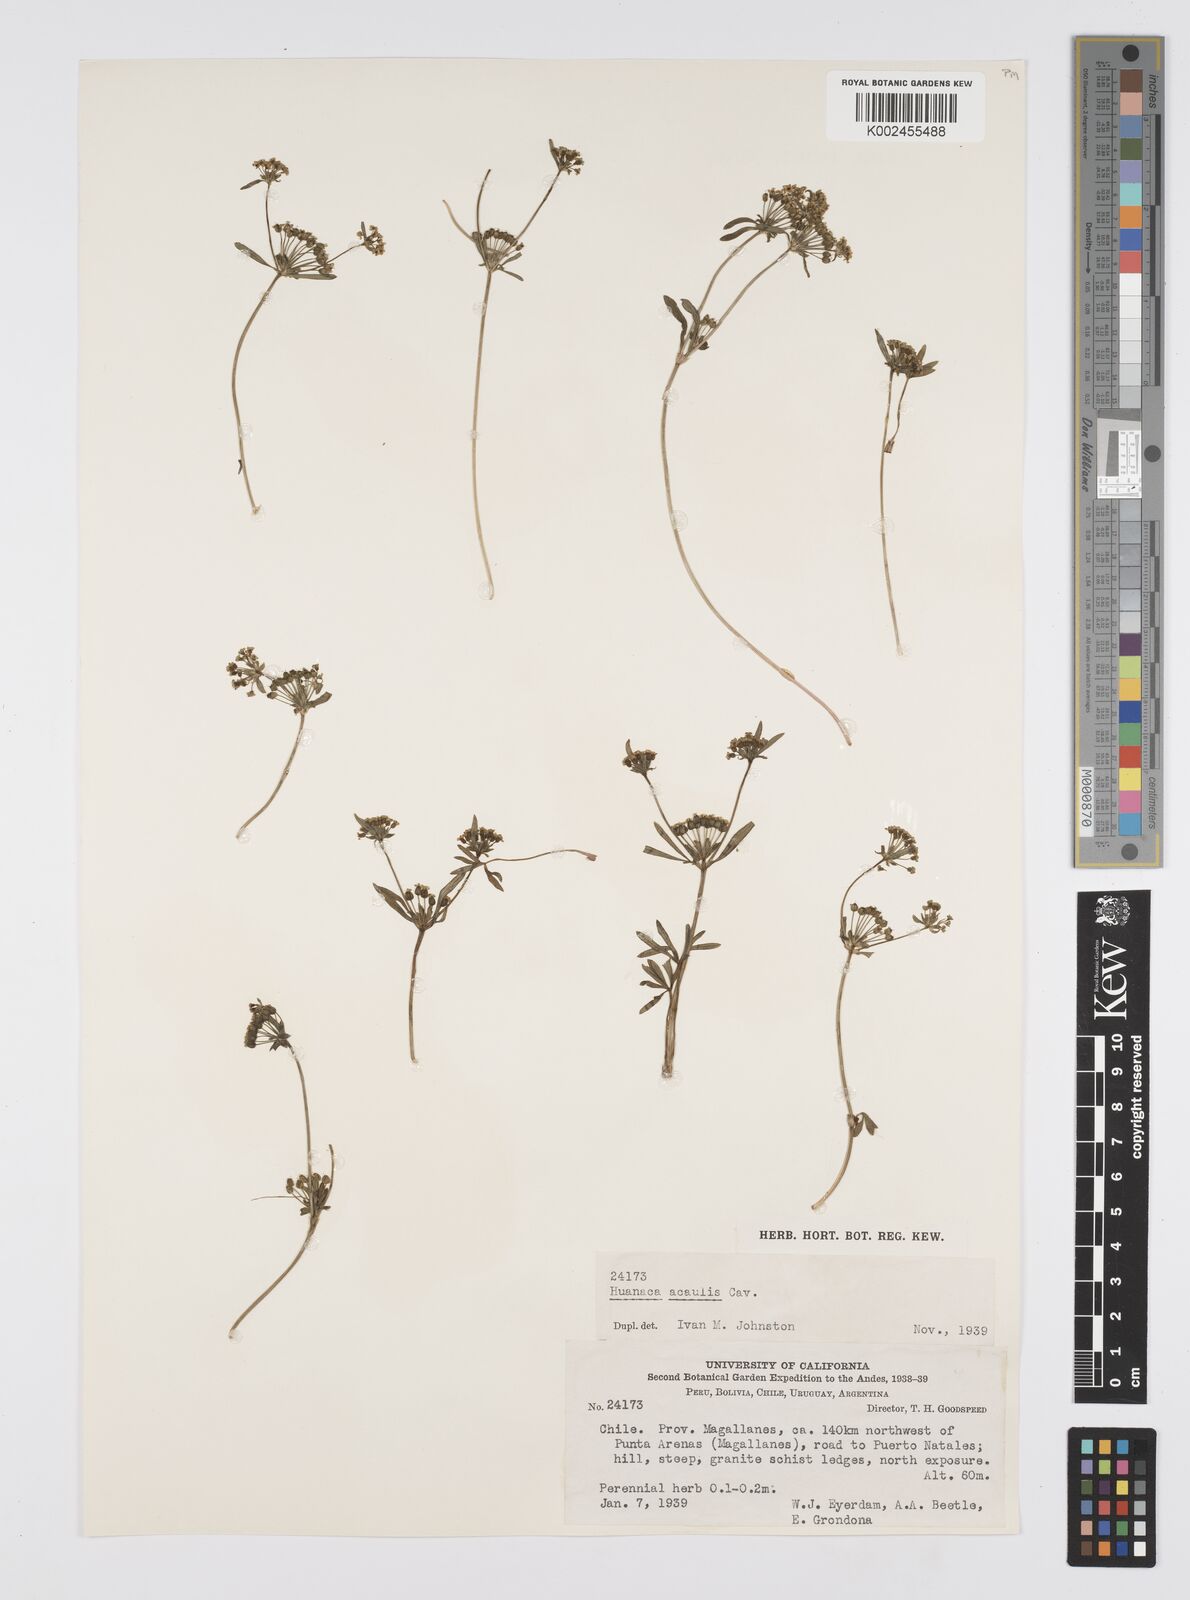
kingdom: Plantae
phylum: Tracheophyta
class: Magnoliopsida
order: Apiales
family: Apiaceae
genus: Azorella
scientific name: Azorella acaulis
